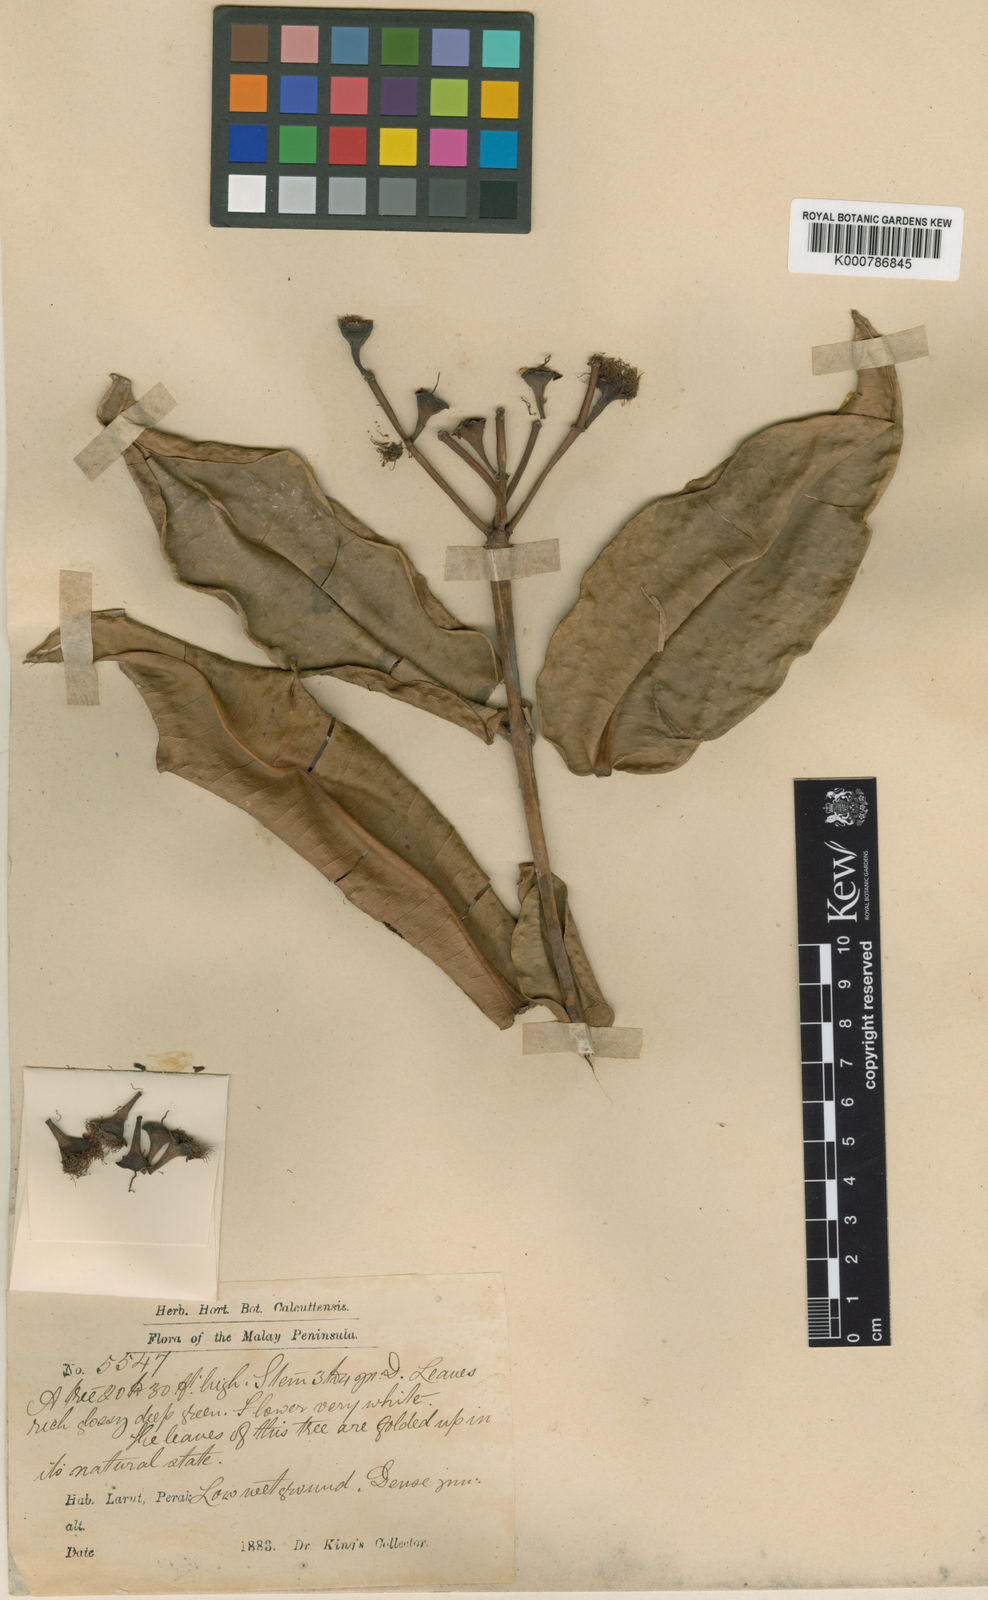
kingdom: Plantae
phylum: Tracheophyta
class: Magnoliopsida
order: Myrtales
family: Myrtaceae
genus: Syzygium
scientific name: Syzygium quadratum
